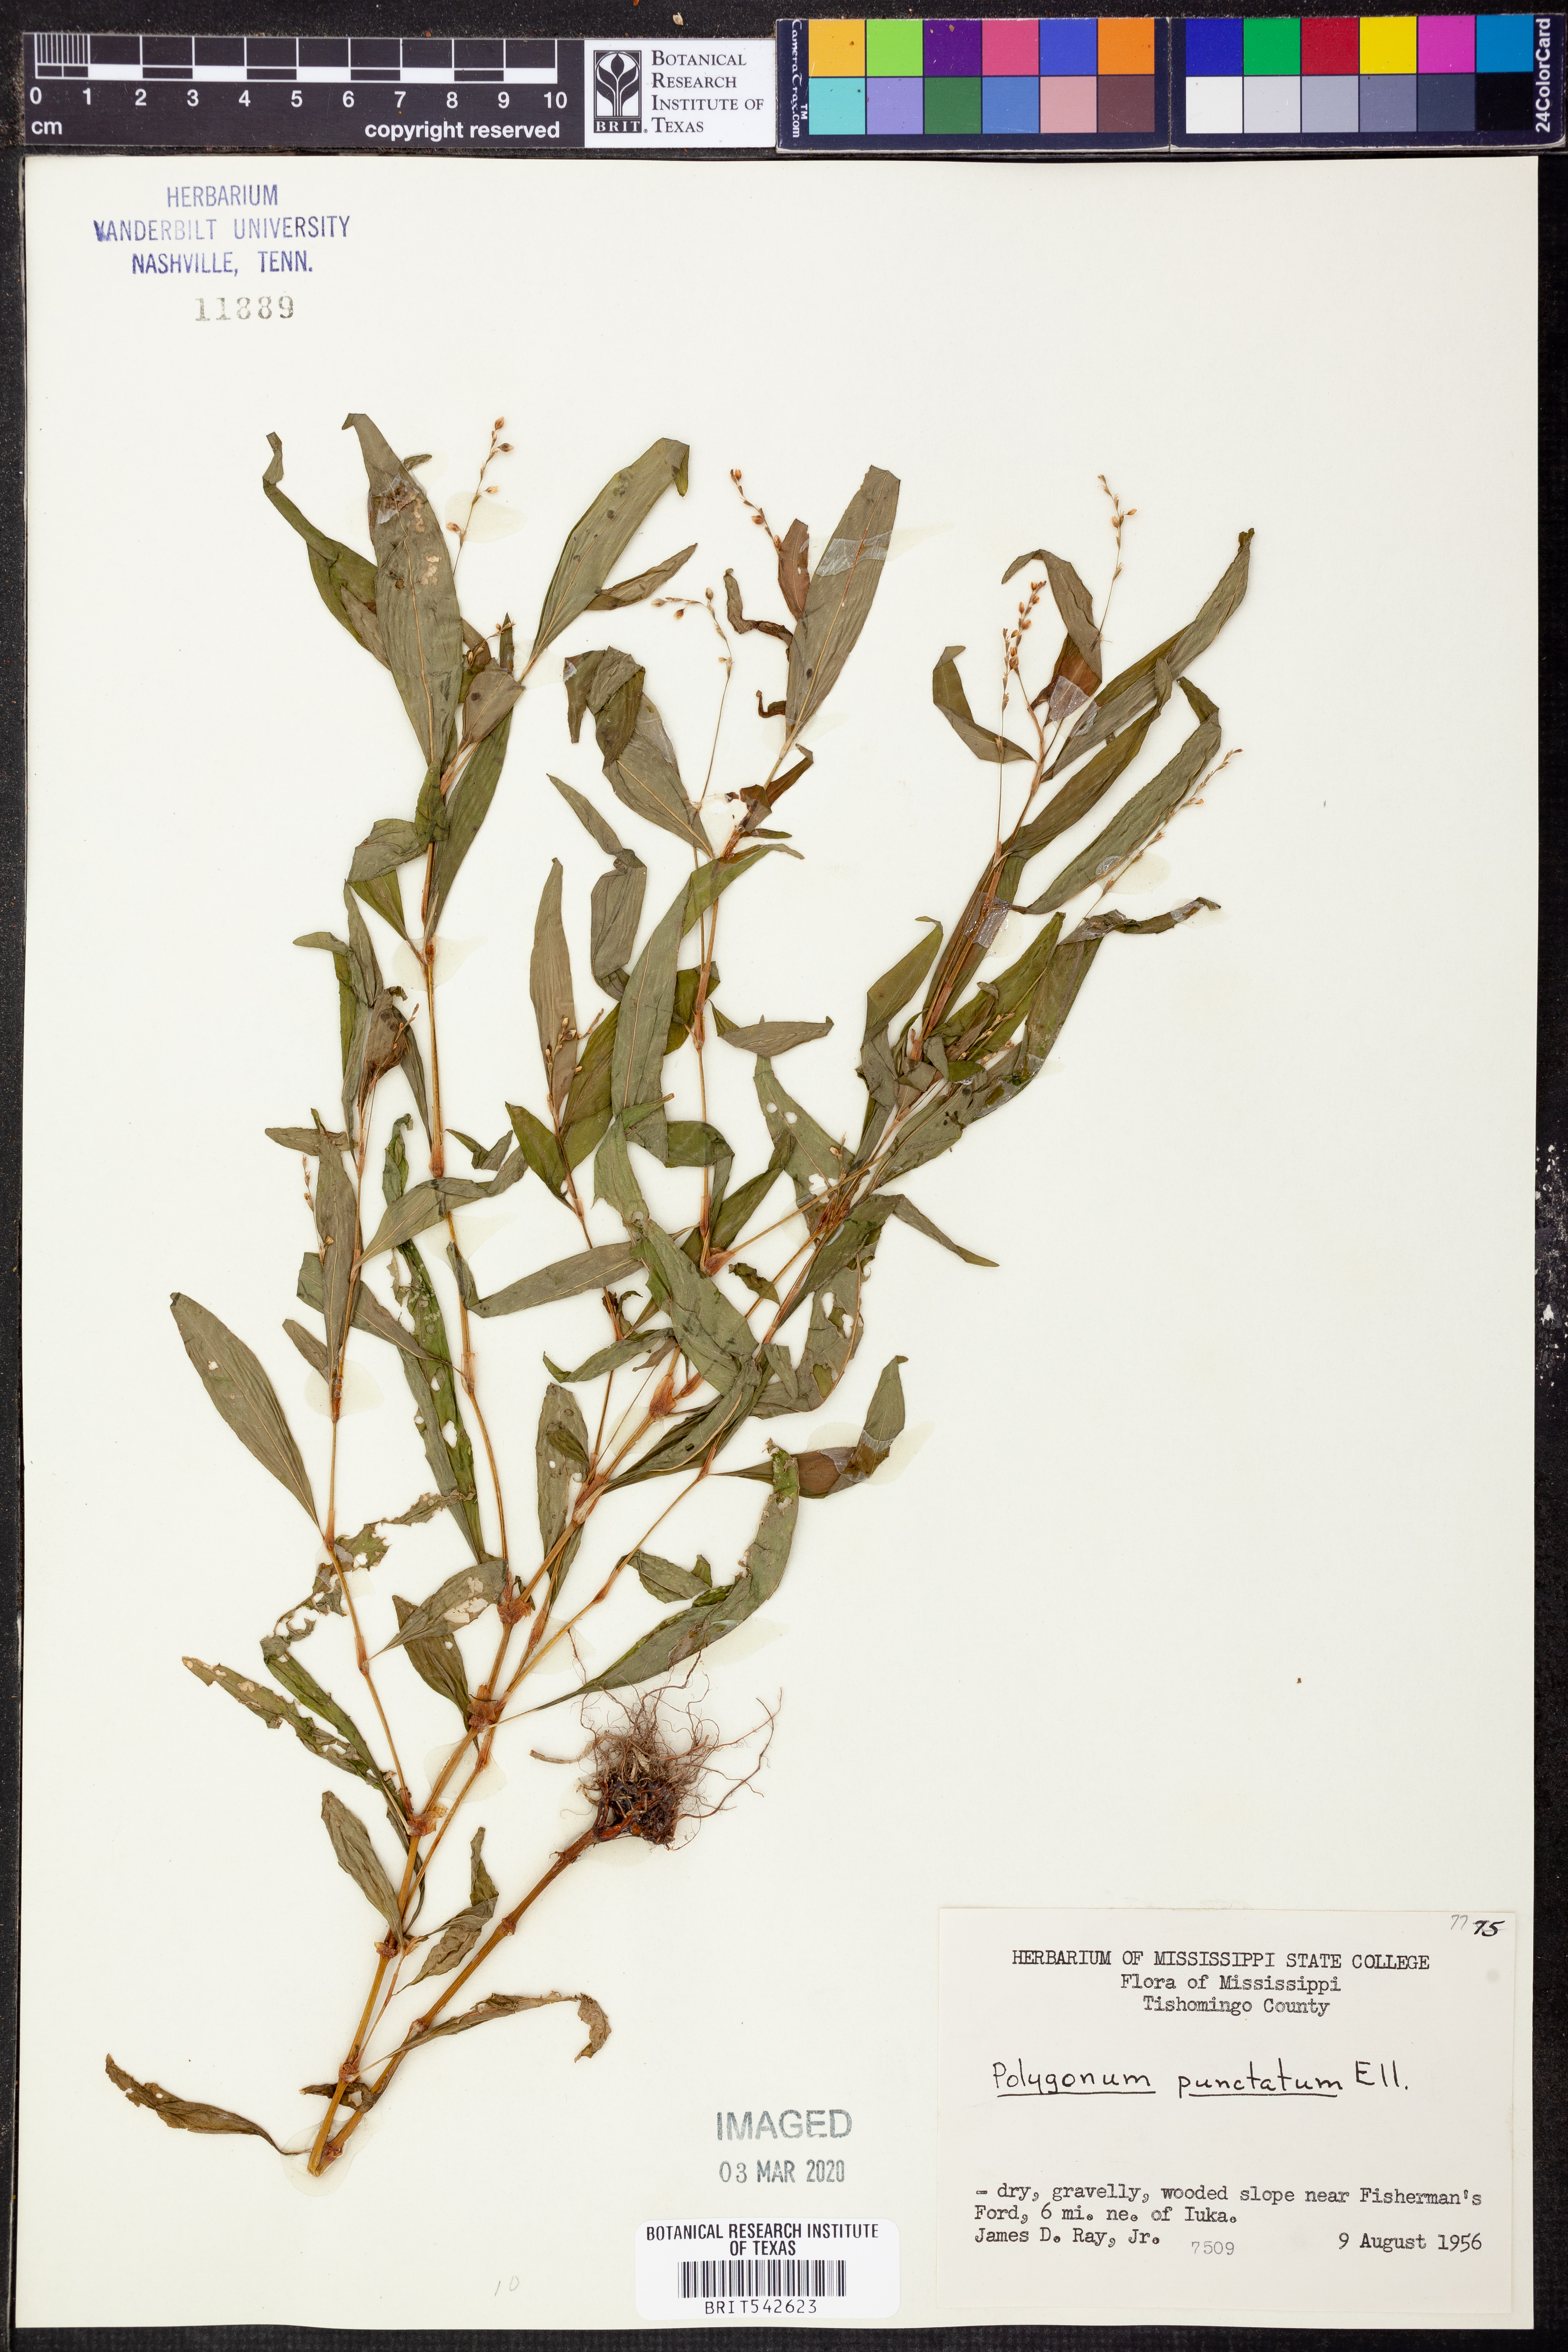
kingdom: Plantae
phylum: Tracheophyta
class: Magnoliopsida
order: Caryophyllales
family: Polygonaceae
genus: Persicaria
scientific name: Persicaria punctata
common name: Dotted smartweed
